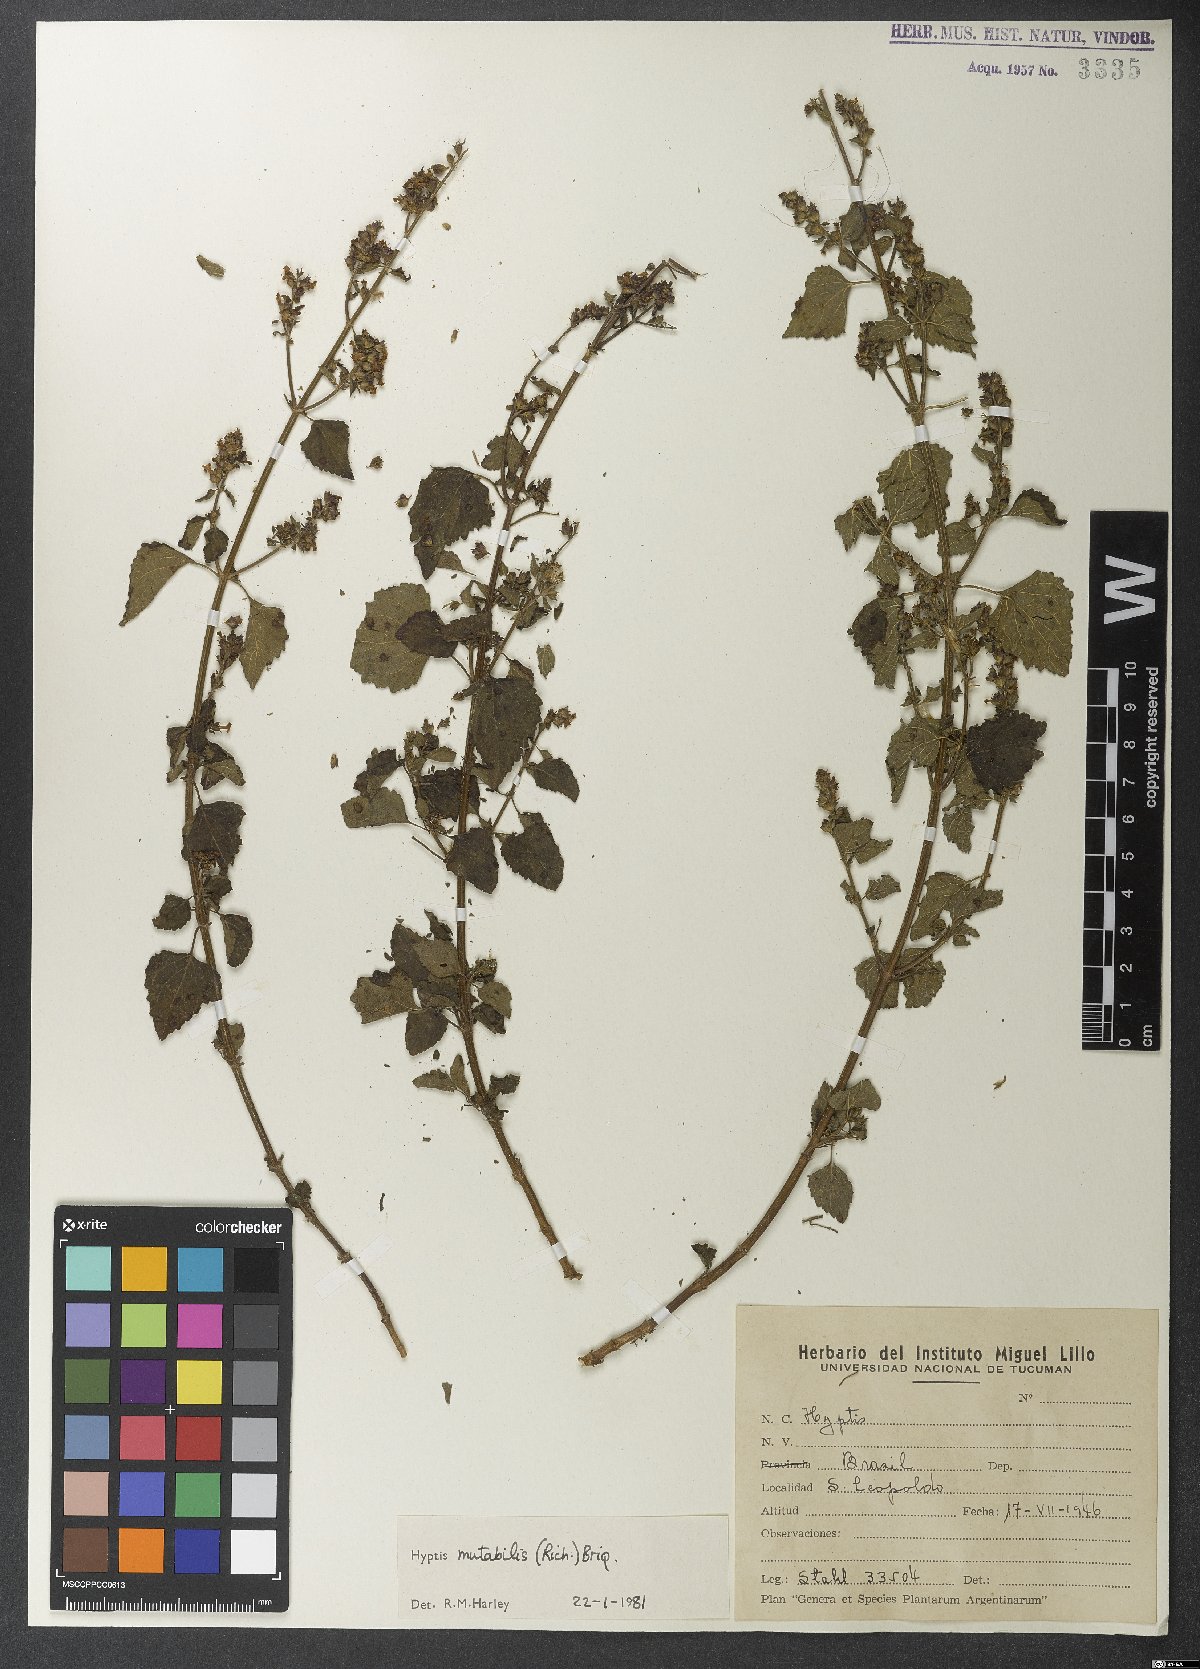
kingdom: Plantae
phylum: Tracheophyta
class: Magnoliopsida
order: Lamiales
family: Lamiaceae
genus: Cantinoa
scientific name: Cantinoa mutabilis
